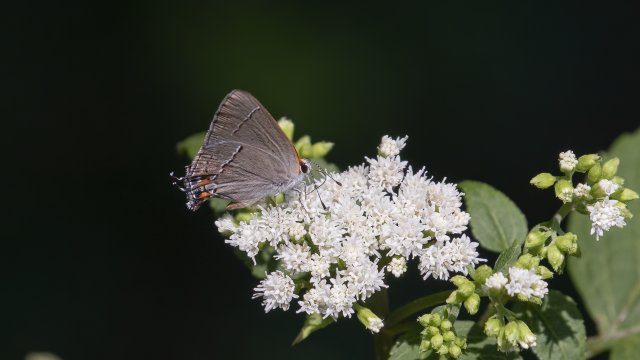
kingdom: Animalia
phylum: Arthropoda
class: Insecta
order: Lepidoptera
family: Lycaenidae
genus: Strymon
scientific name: Strymon melinus
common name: Gray Hairstreak
